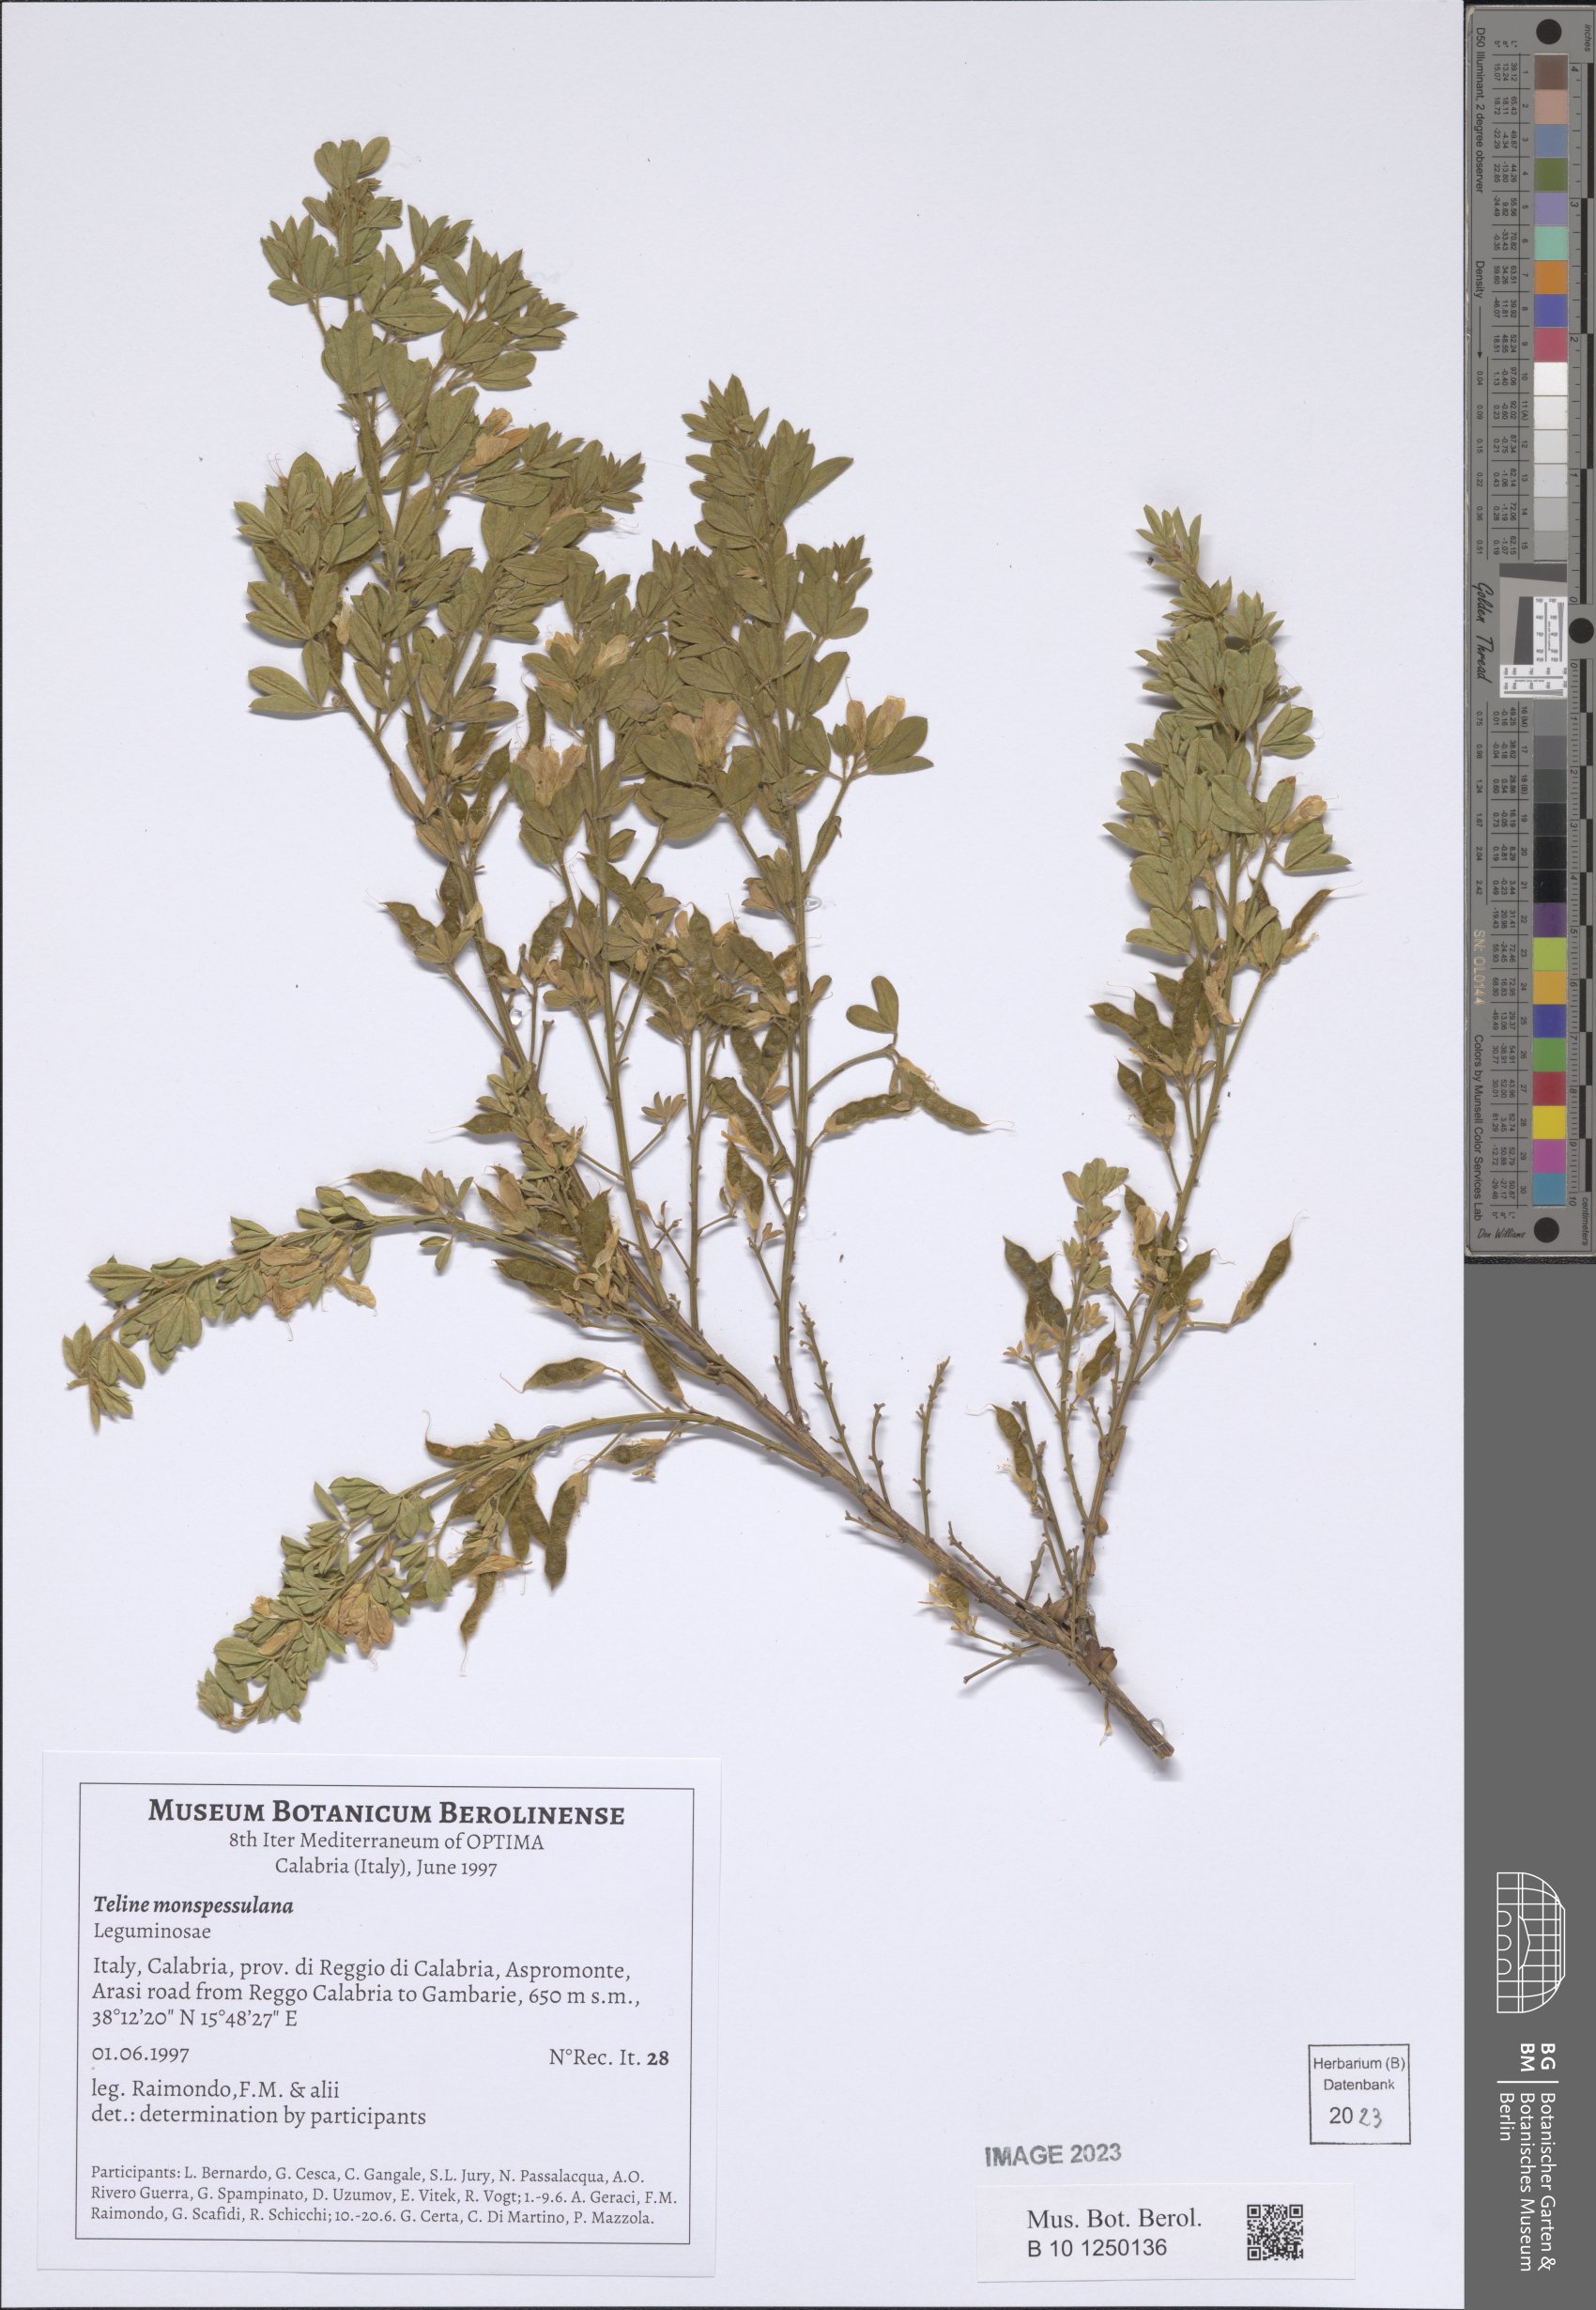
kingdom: Plantae
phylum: Tracheophyta
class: Magnoliopsida
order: Fabales
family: Fabaceae
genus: Genista
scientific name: Genista monspessulana
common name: Montpellier broom
